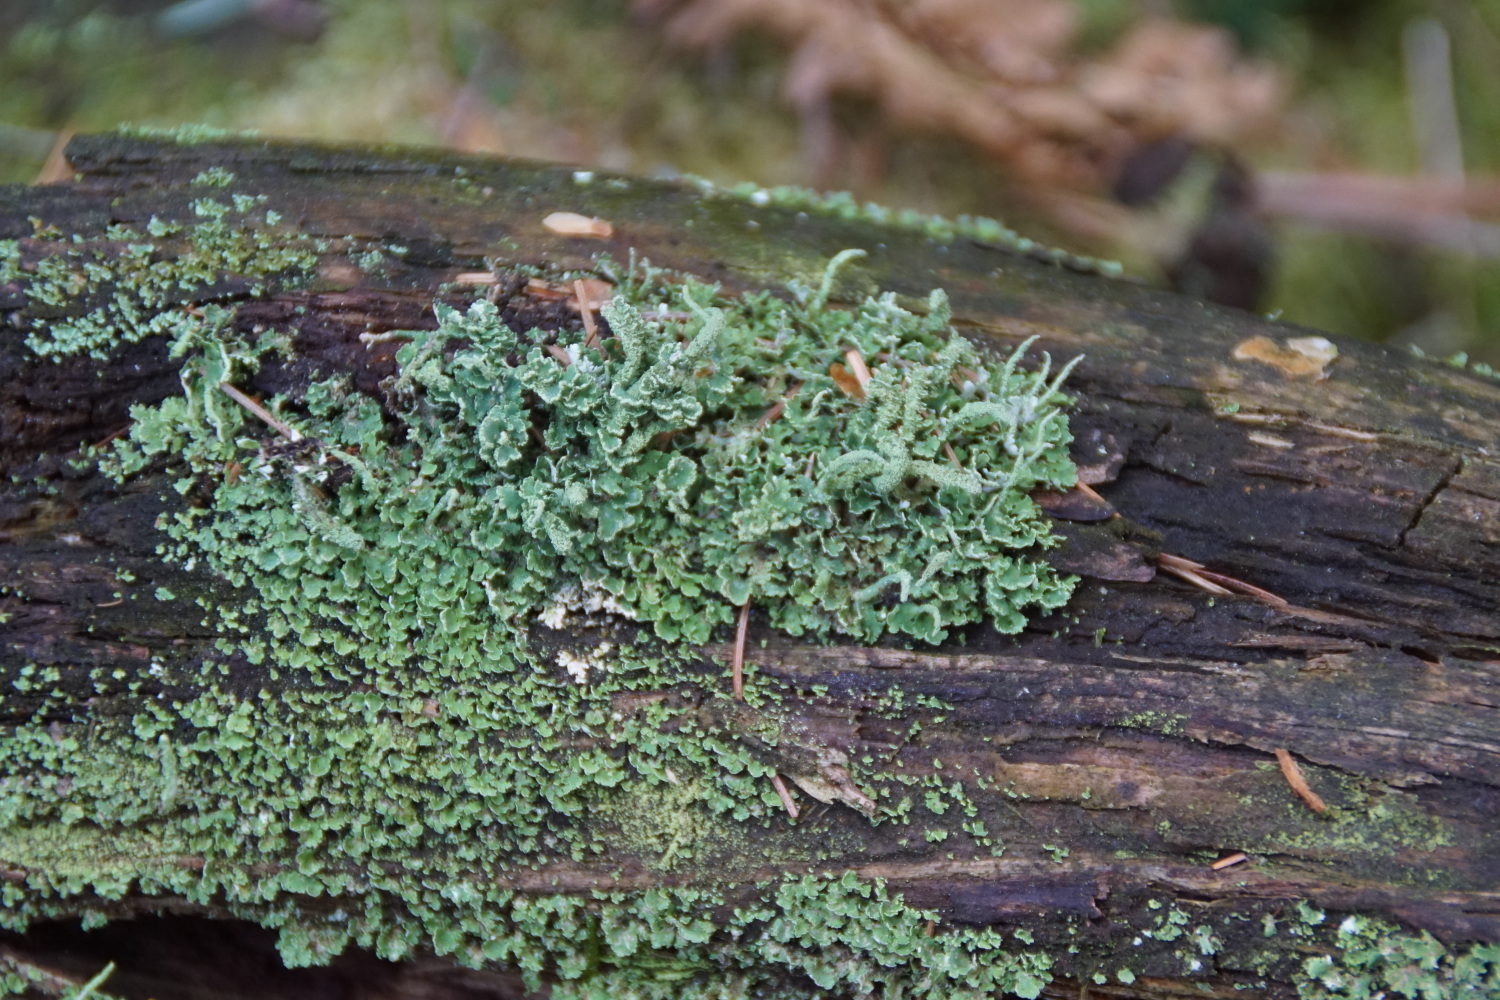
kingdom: Fungi
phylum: Ascomycota
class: Lecanoromycetes
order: Lecanorales
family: Cladoniaceae
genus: Cladonia
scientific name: Cladonia coniocraea
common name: træfods-bægerlav
